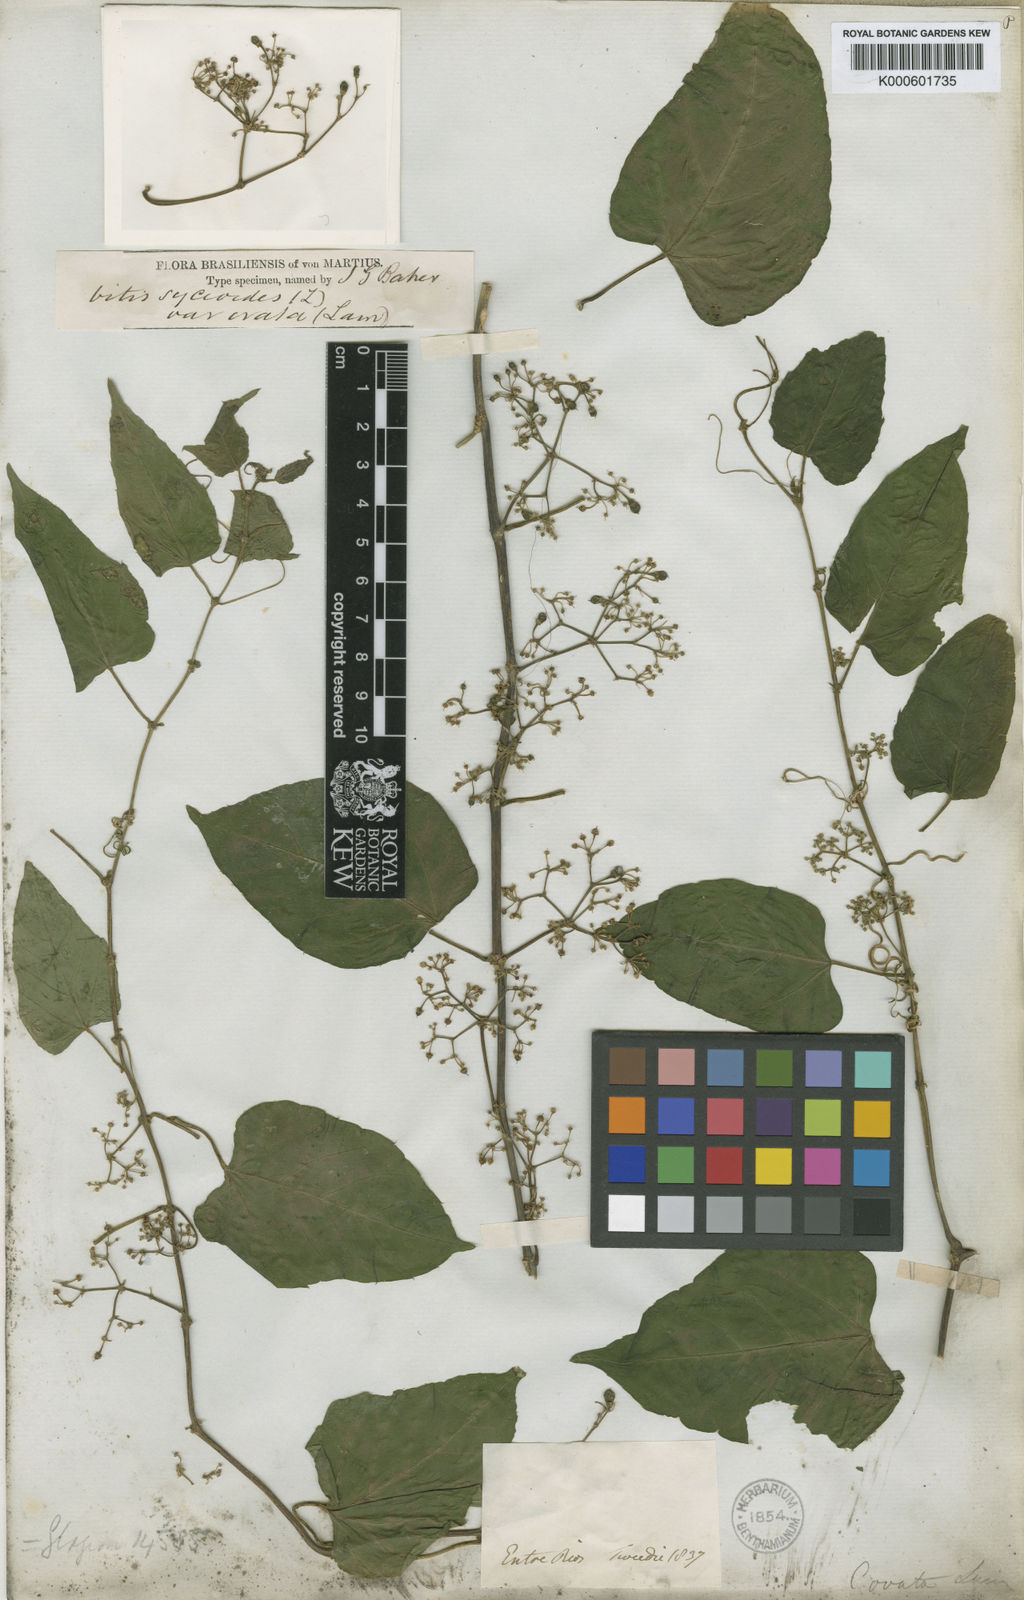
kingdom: Plantae
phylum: Tracheophyta
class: Magnoliopsida
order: Vitales
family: Vitaceae
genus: Cissus
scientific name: Cissus verticillata
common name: Princess vine
